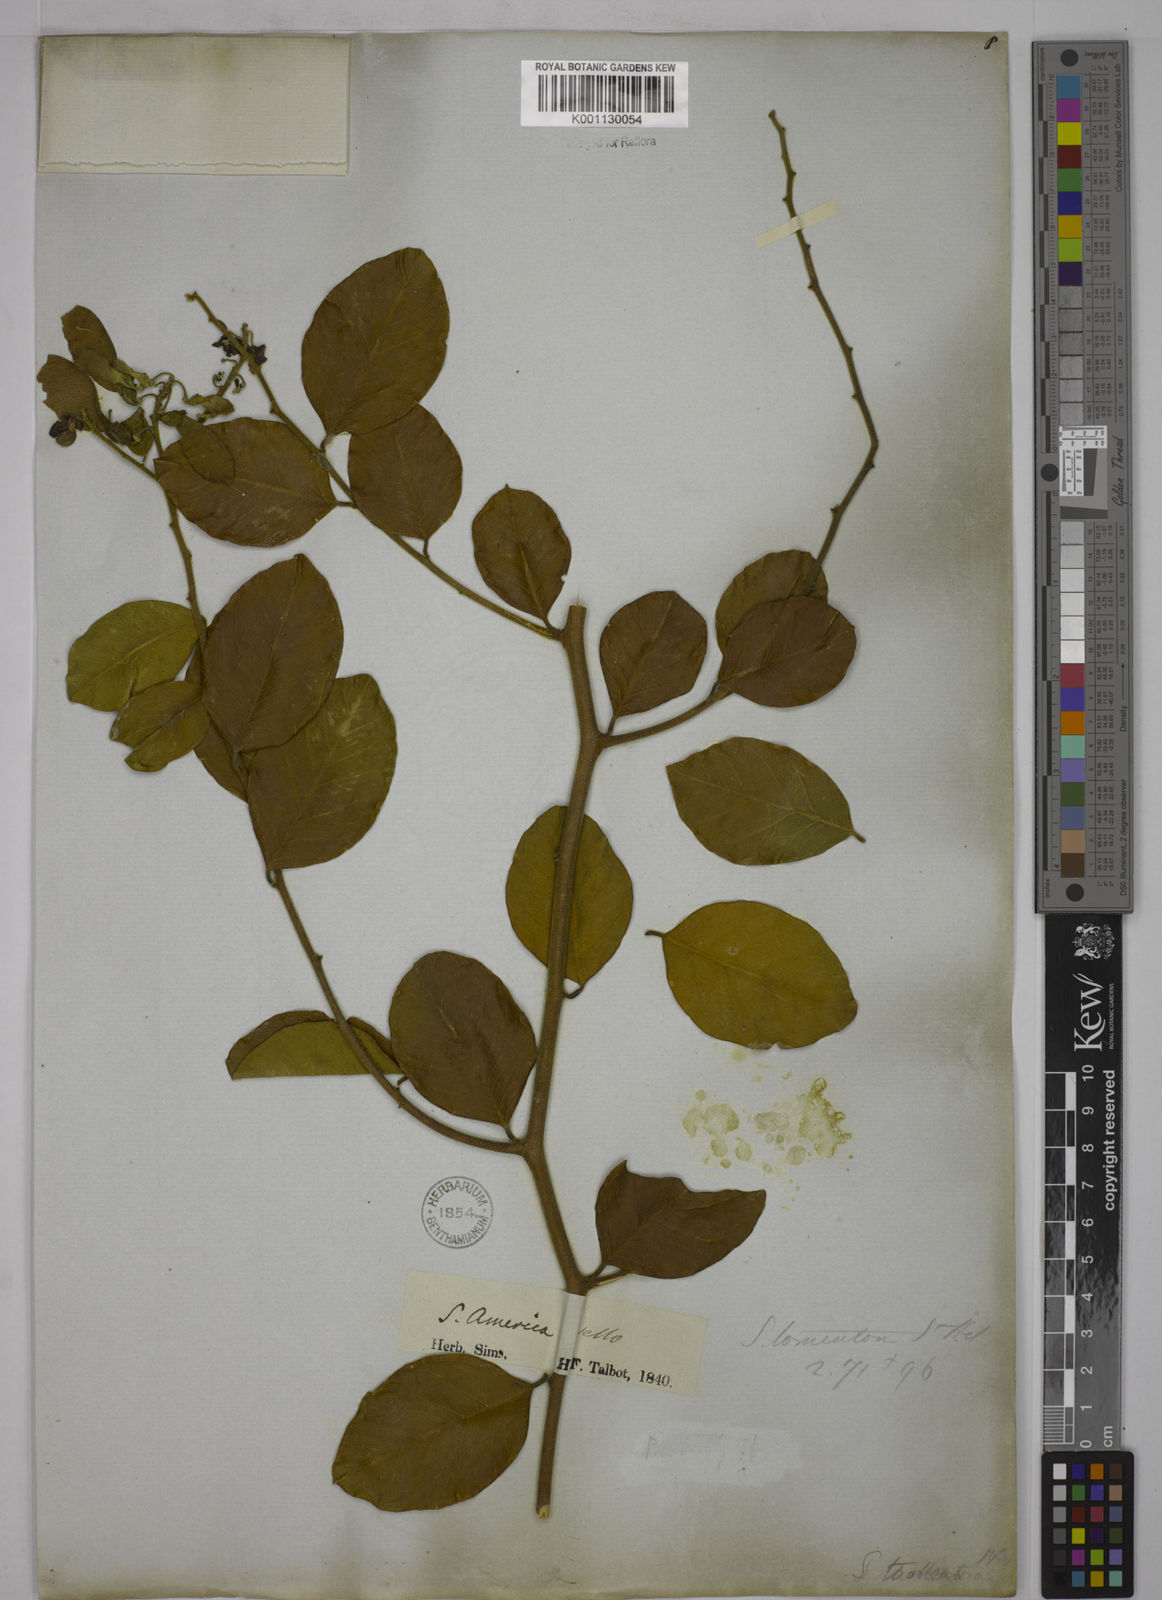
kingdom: Plantae
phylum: Tracheophyta
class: Magnoliopsida
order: Fabales
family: Polygalaceae
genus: Securidaca
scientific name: Securidaca tomentosa
